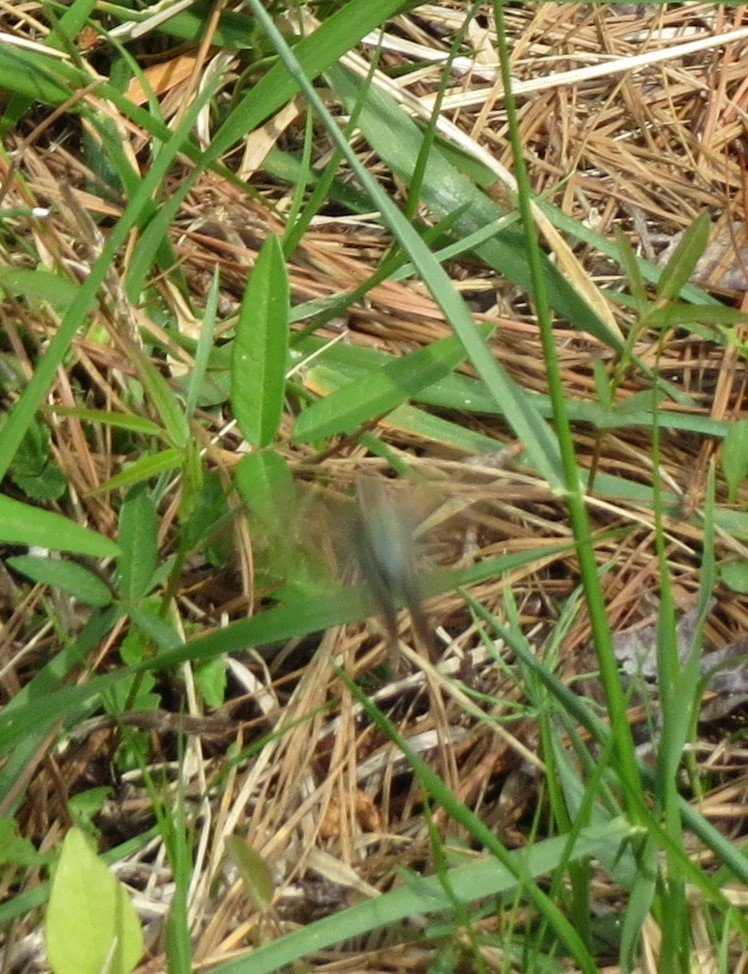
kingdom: Animalia
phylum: Arthropoda
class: Insecta
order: Lepidoptera
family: Hesperiidae
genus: Urbanus
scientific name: Urbanus proteus
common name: Long-tailed Skipper
